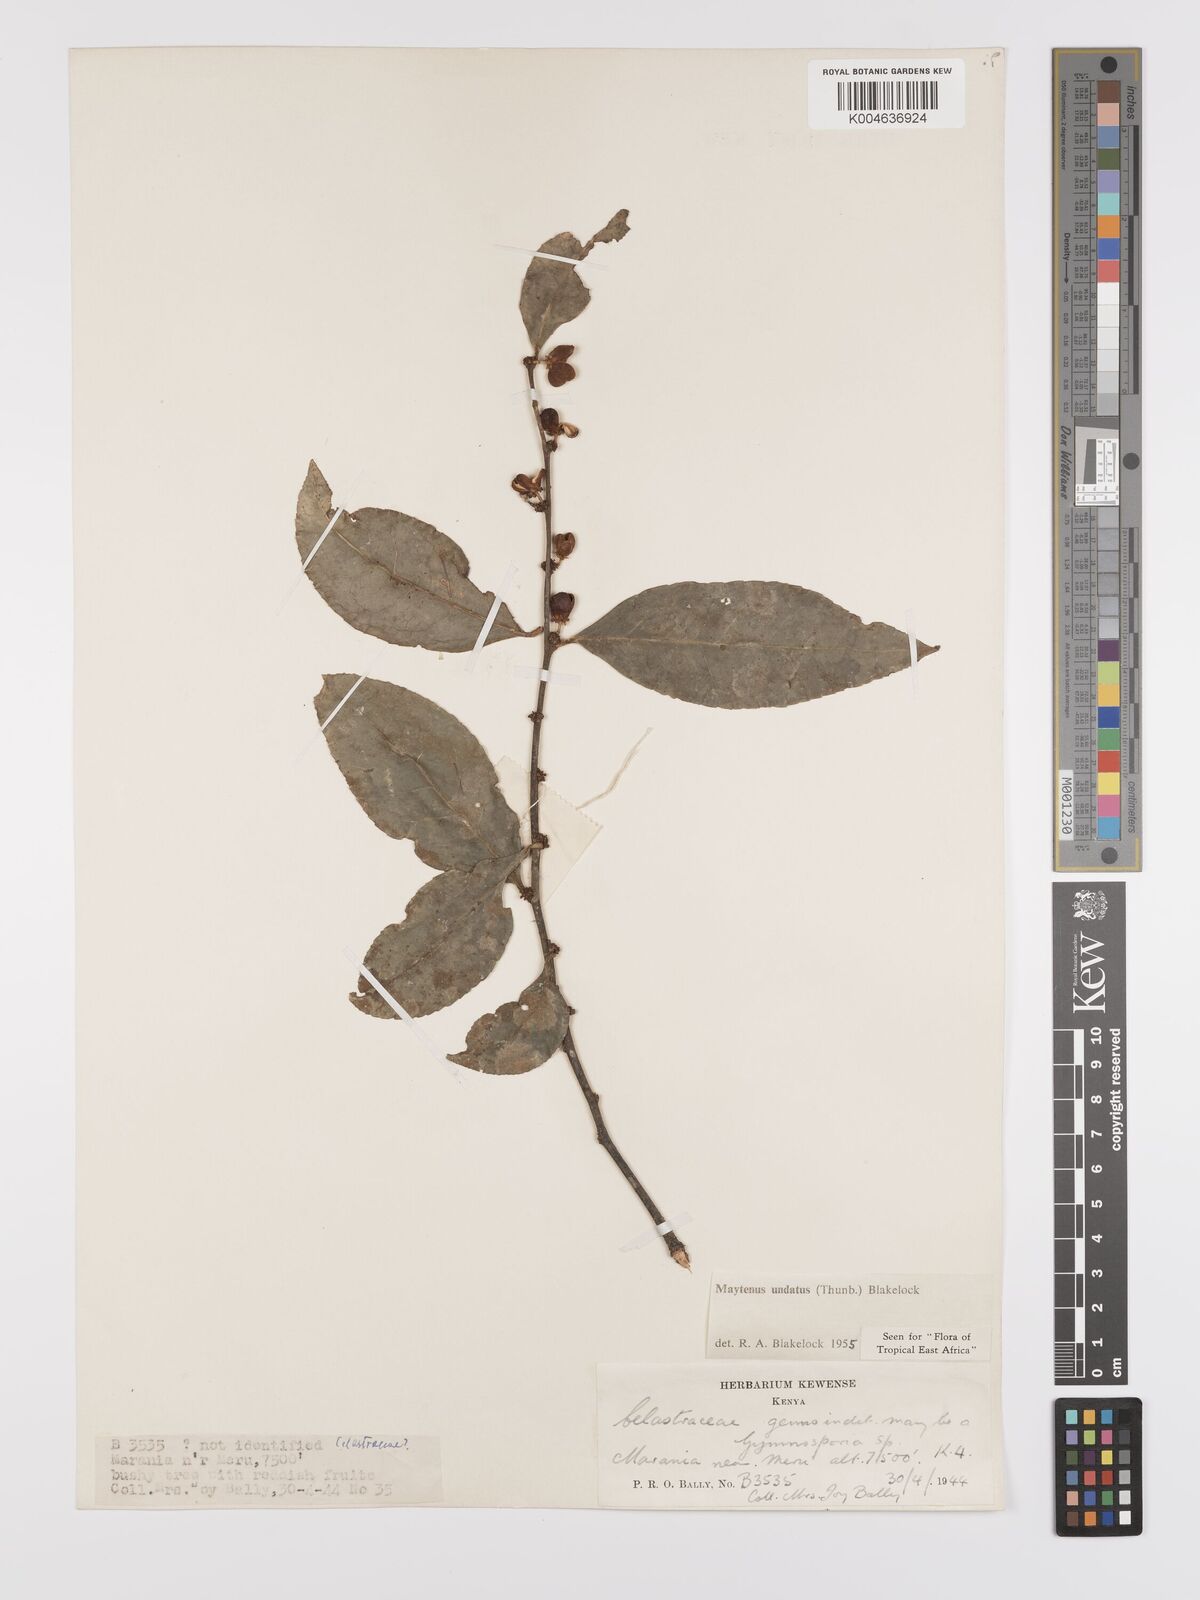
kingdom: Plantae
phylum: Tracheophyta
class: Magnoliopsida
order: Celastrales
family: Celastraceae
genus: Gymnosporia
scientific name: Gymnosporia undata
